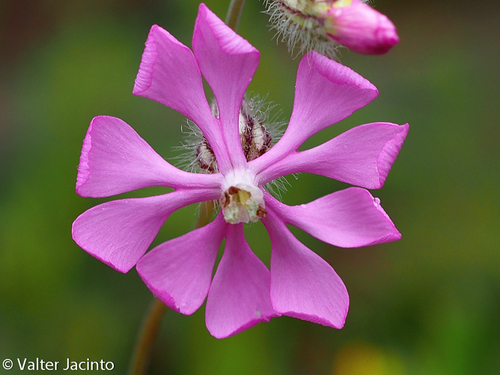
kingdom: Plantae
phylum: Tracheophyta
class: Magnoliopsida
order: Caryophyllales
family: Caryophyllaceae
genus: Silene
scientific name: Silene colorata
